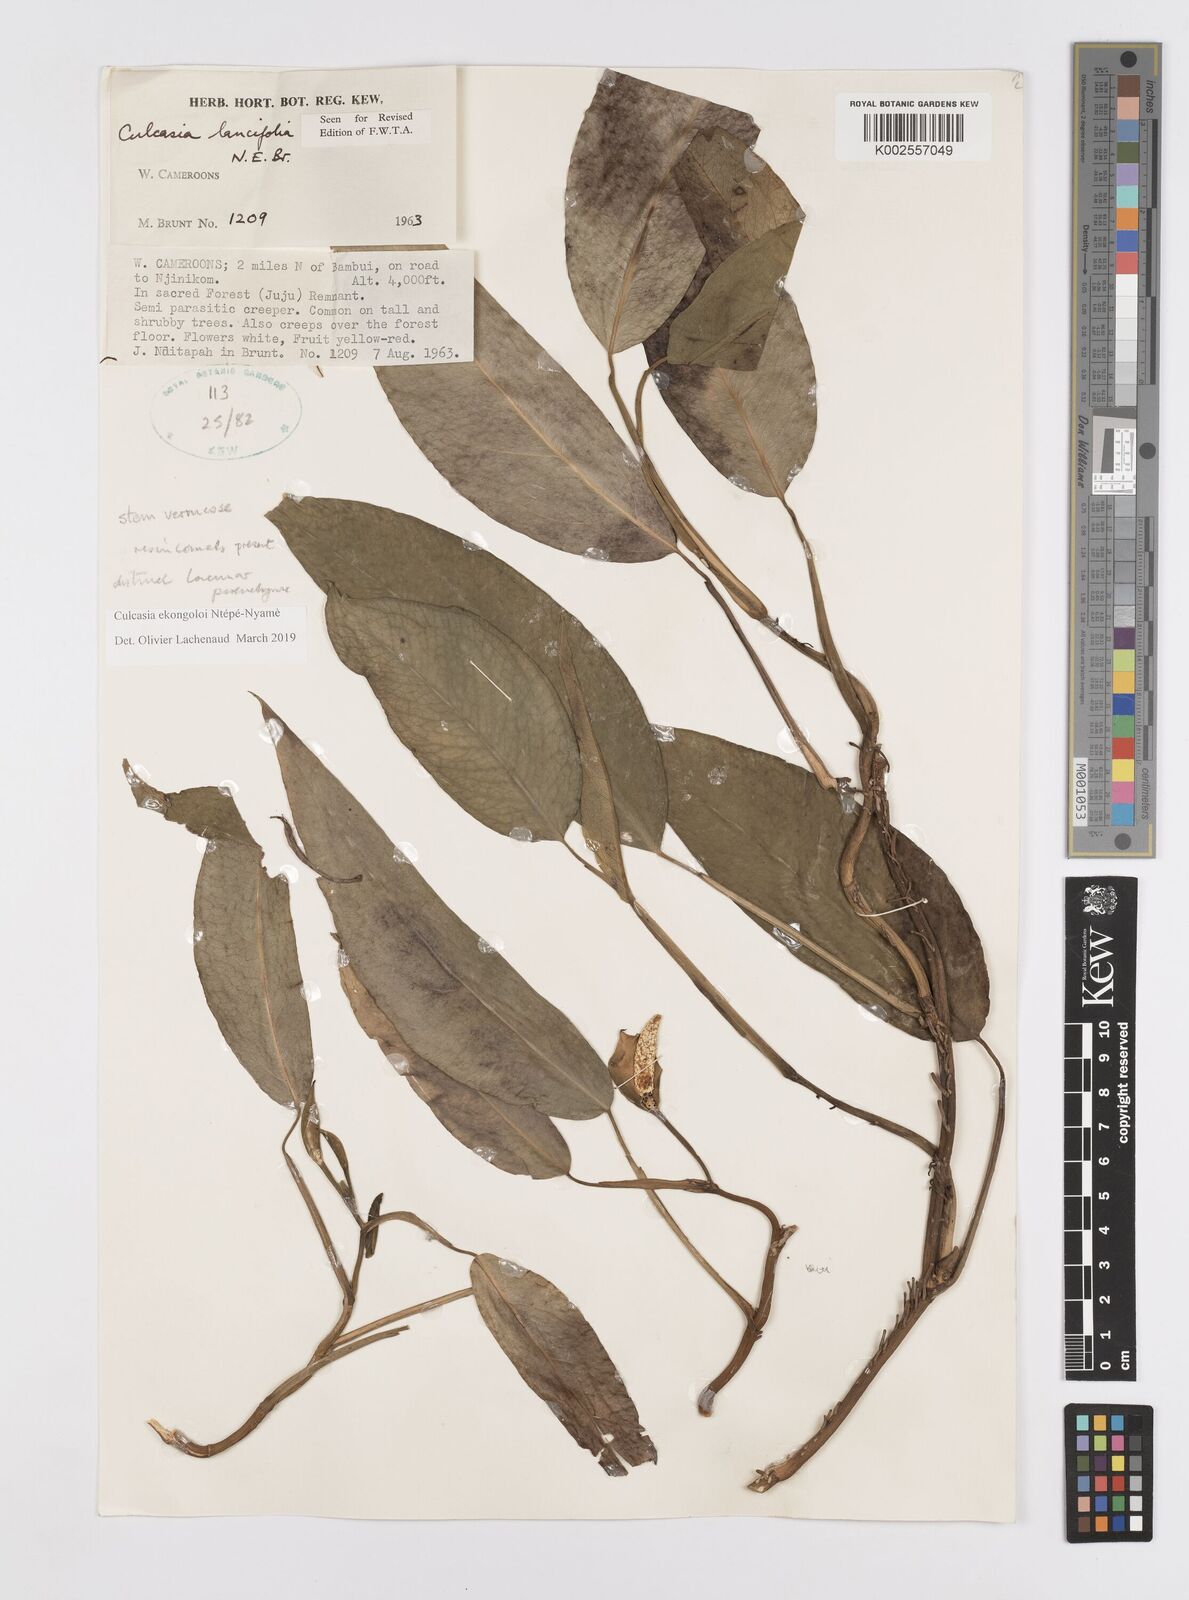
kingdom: Plantae
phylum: Tracheophyta
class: Liliopsida
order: Alismatales
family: Araceae
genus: Culcasia
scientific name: Culcasia ekongoloi
